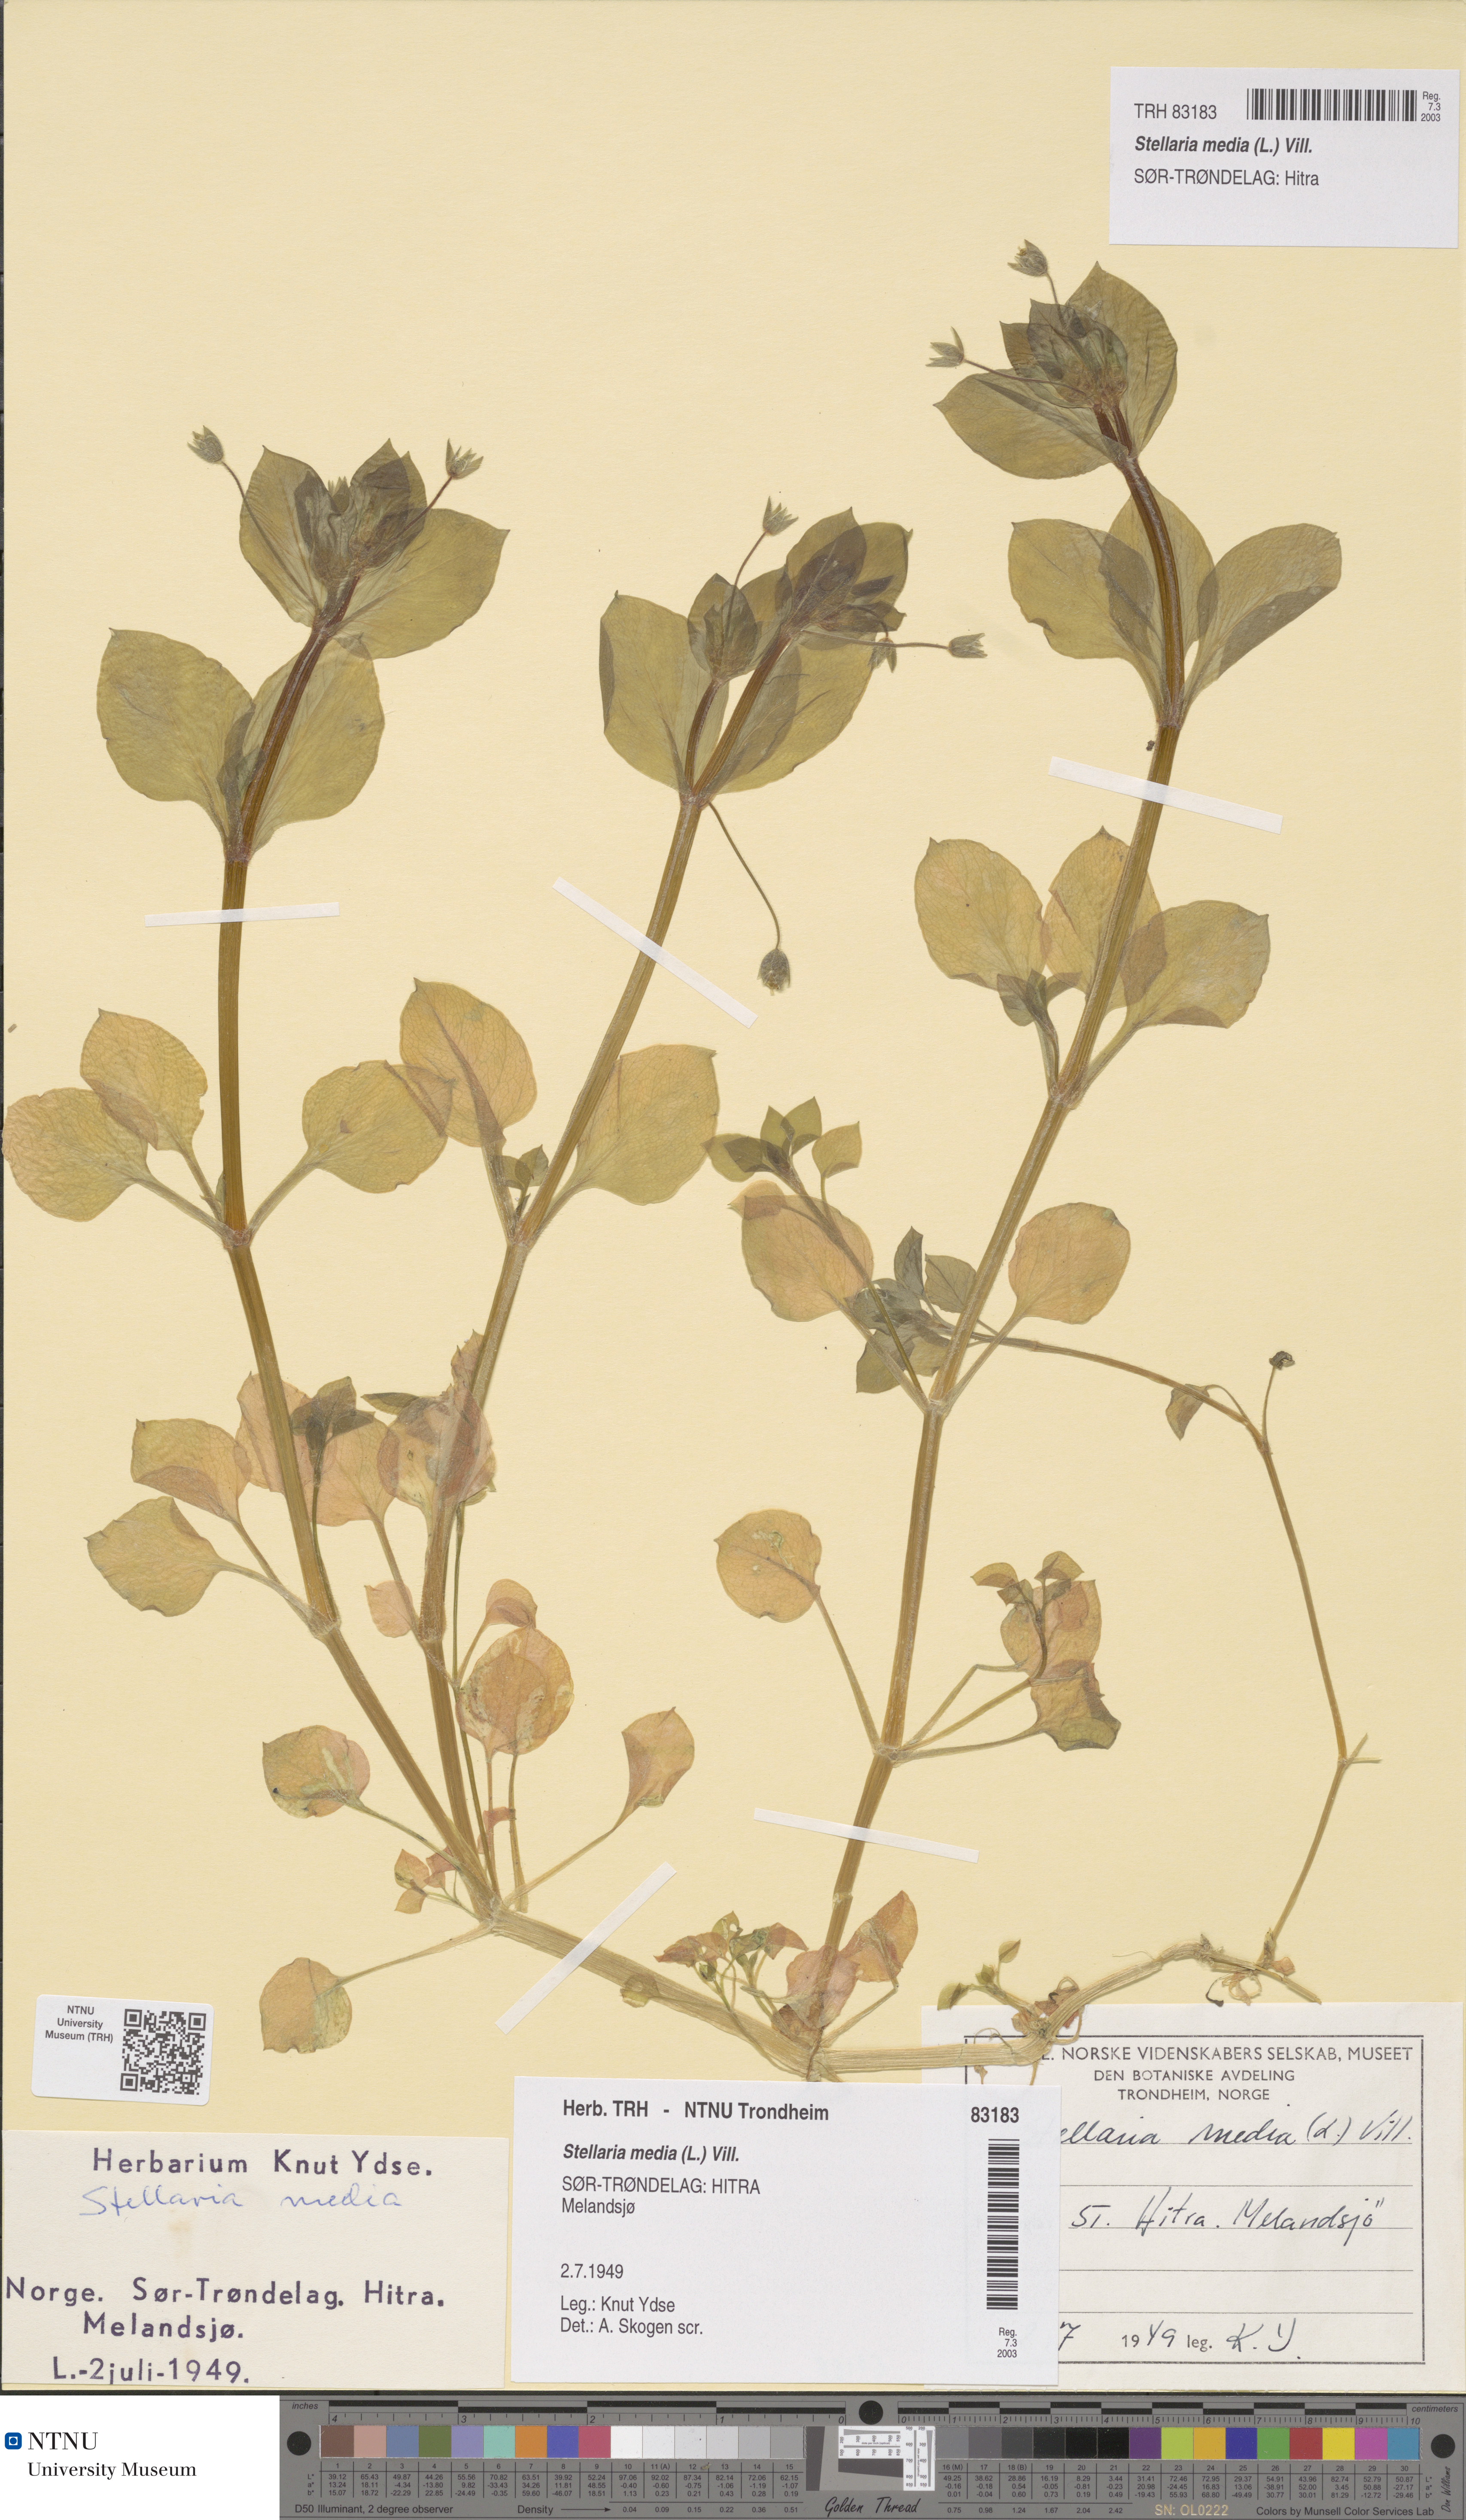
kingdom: Plantae
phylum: Tracheophyta
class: Magnoliopsida
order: Caryophyllales
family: Caryophyllaceae
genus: Stellaria
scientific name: Stellaria media
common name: Common chickweed
